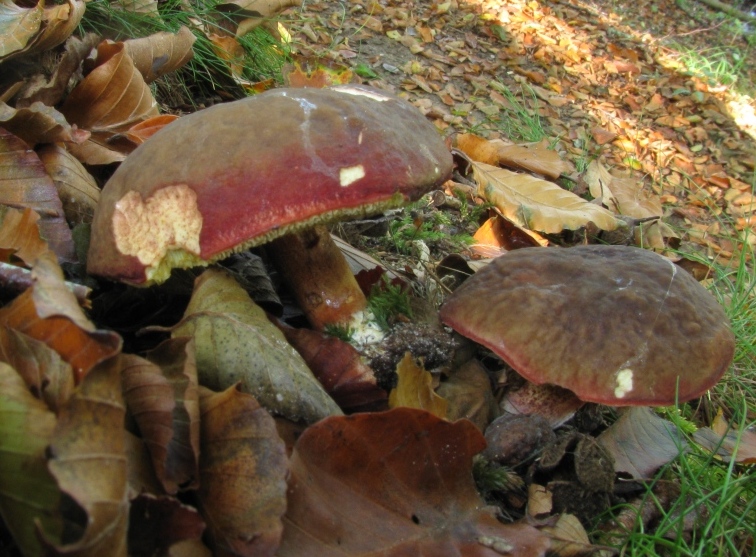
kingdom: Fungi
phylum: Basidiomycota
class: Agaricomycetes
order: Boletales
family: Boletaceae
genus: Xerocomellus
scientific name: Xerocomellus pruinatus
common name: dugget rørhat
